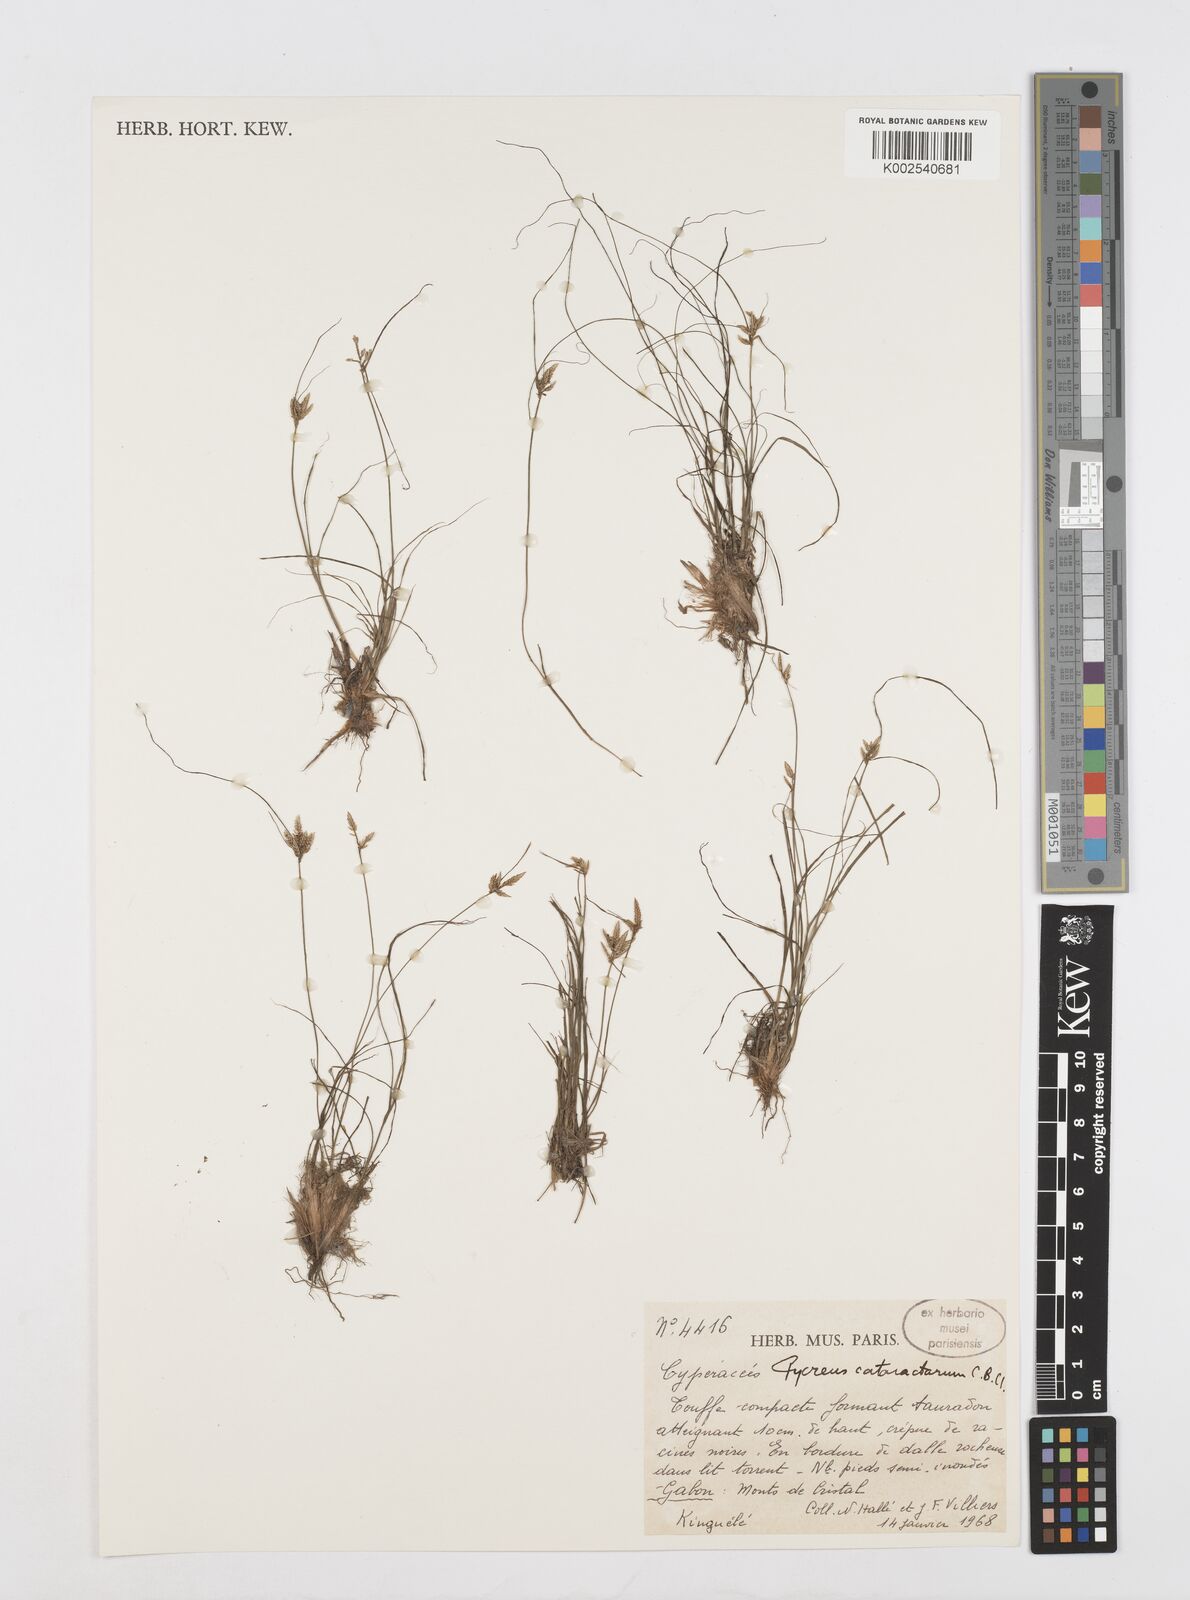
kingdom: Plantae
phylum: Tracheophyta
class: Liliopsida
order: Poales
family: Cyperaceae
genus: Cyperus
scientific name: Cyperus cataractarum
